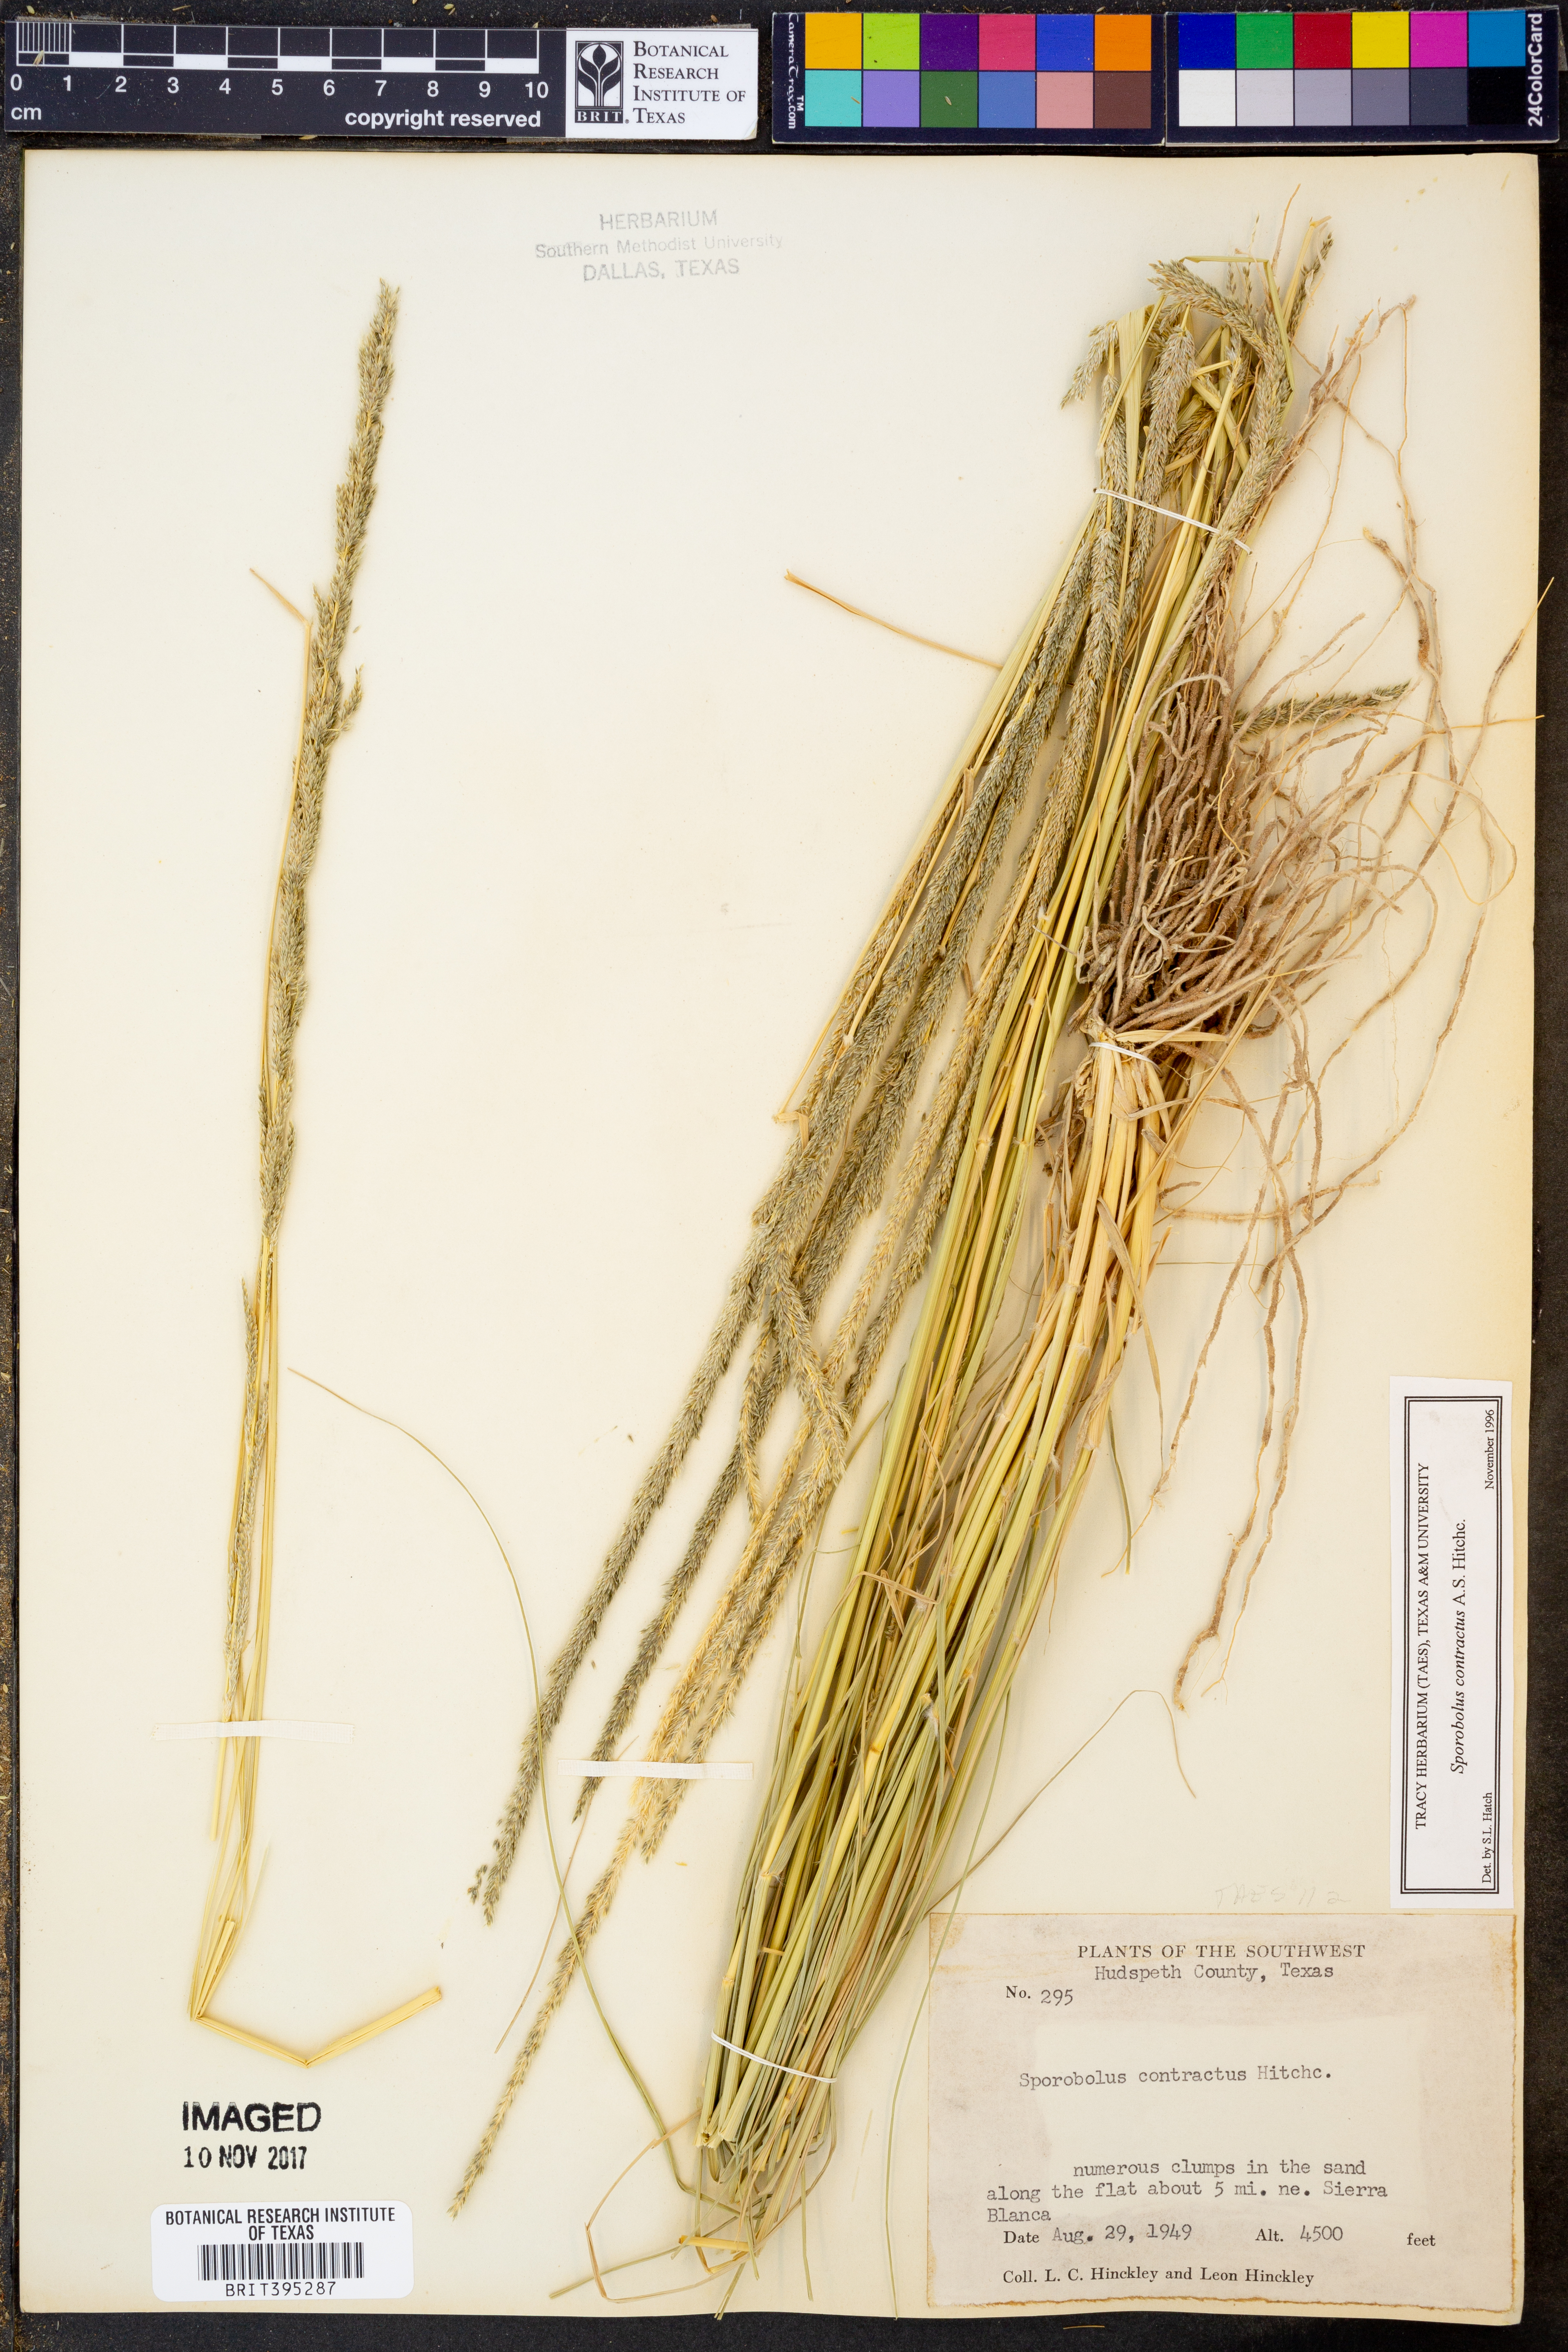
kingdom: Plantae
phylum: Tracheophyta
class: Liliopsida
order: Poales
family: Poaceae
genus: Sporobolus
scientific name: Sporobolus contractus
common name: Spike dropseed
